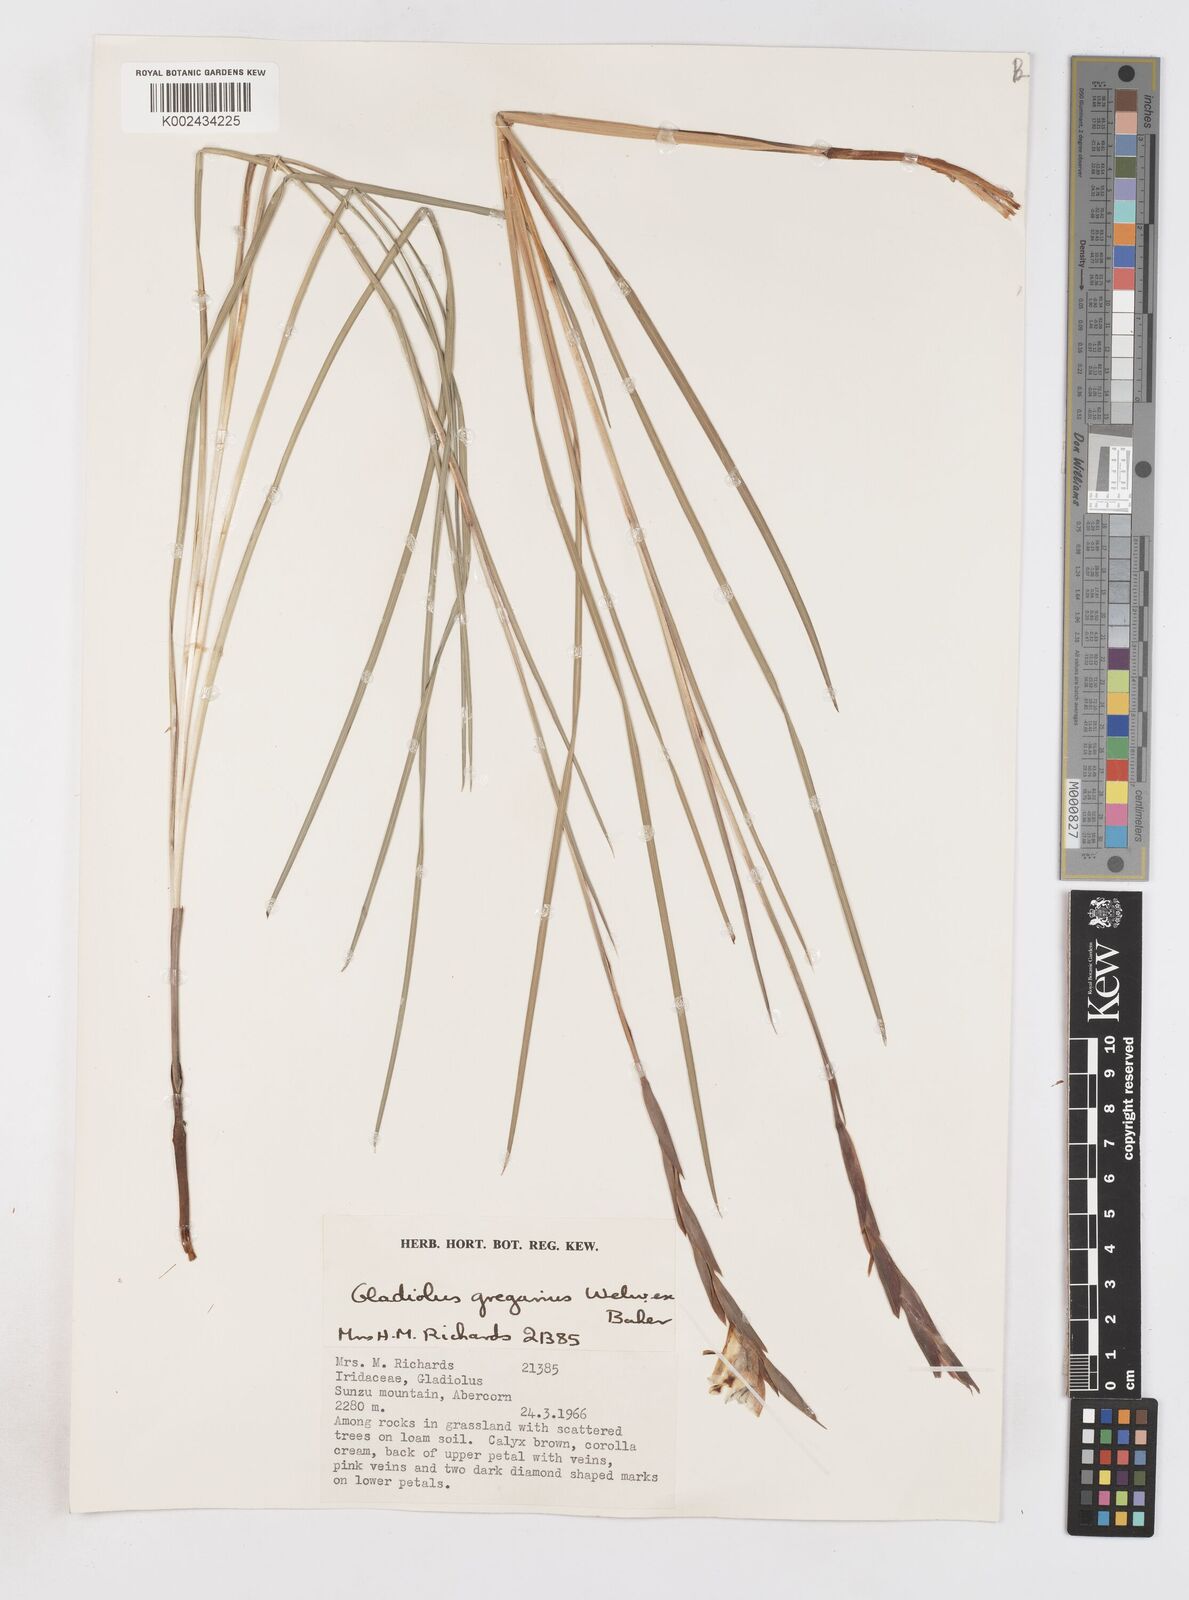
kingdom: Plantae
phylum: Tracheophyta
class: Liliopsida
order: Asparagales
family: Iridaceae
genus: Gladiolus
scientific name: Gladiolus gregarius
